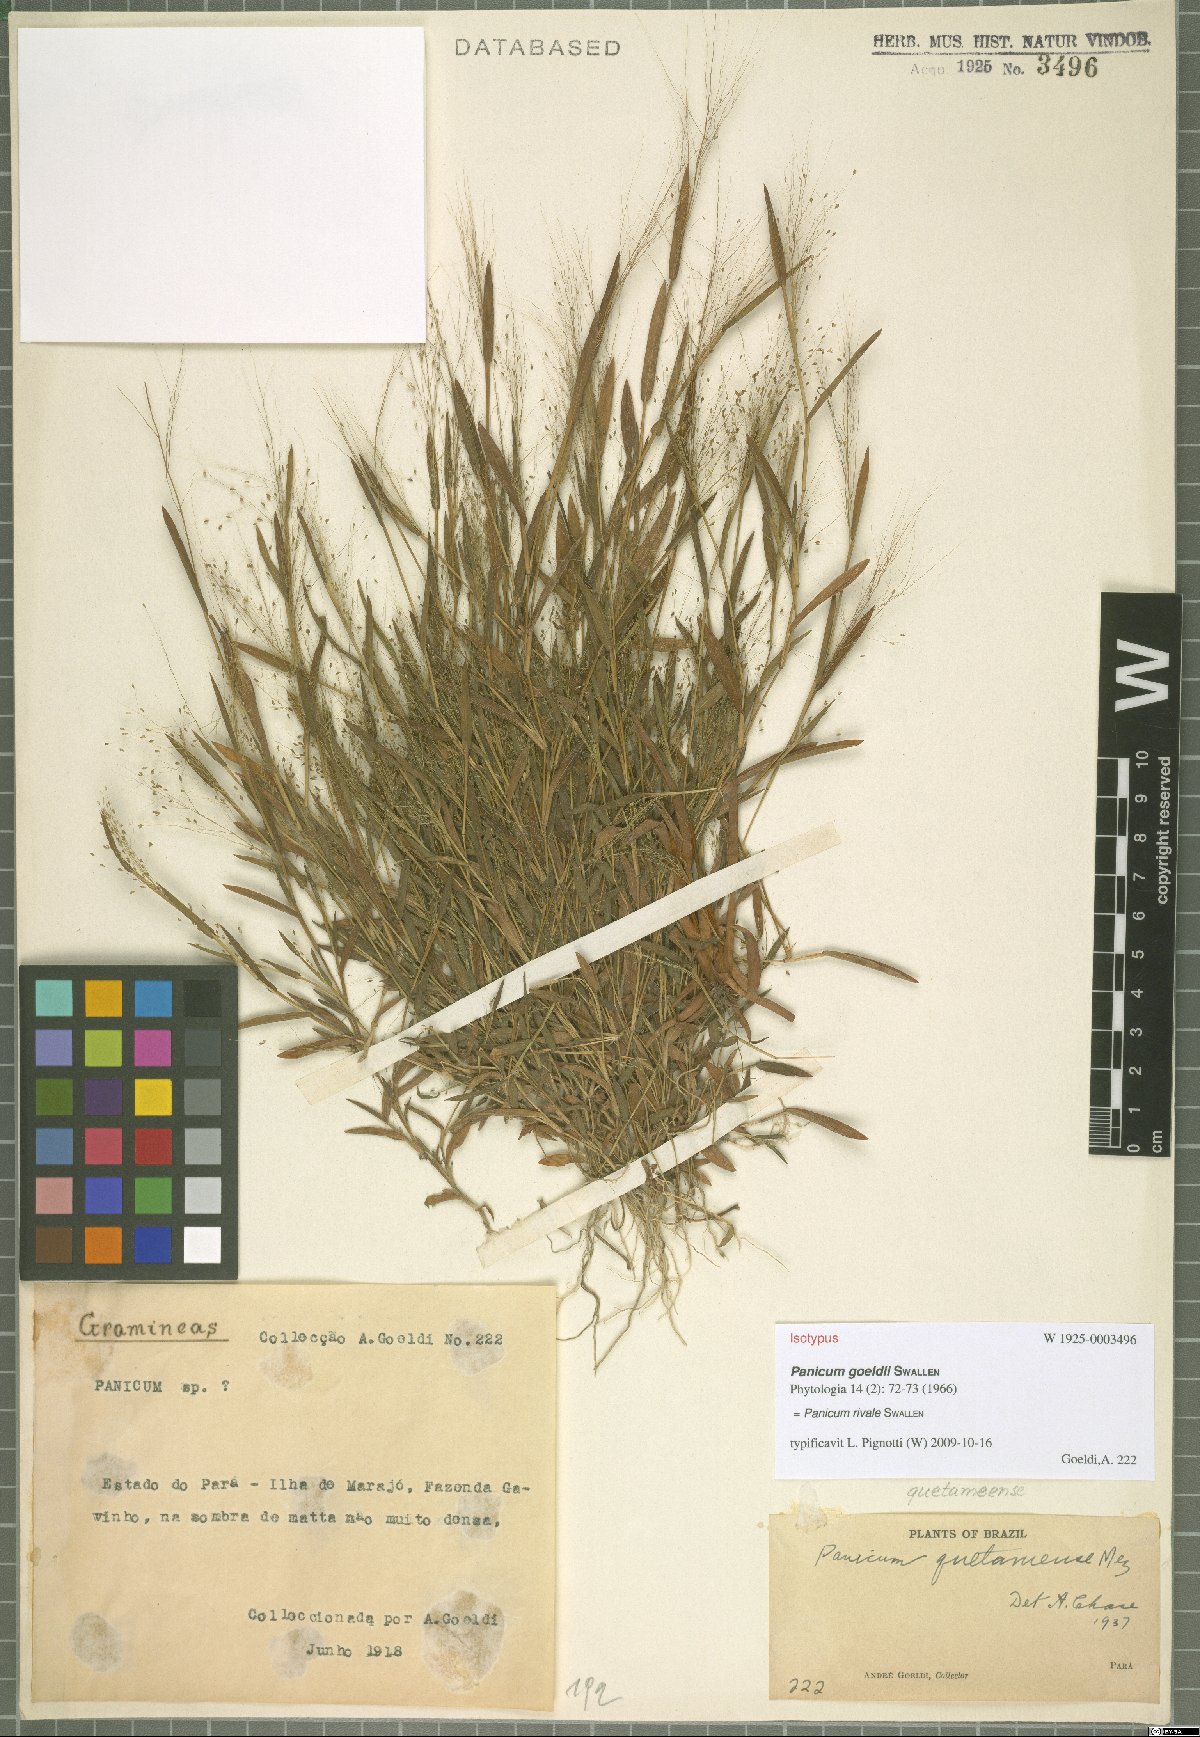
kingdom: Plantae
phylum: Tracheophyta
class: Liliopsida
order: Poales
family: Poaceae
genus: Trichanthecium
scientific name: Trichanthecium rivale
